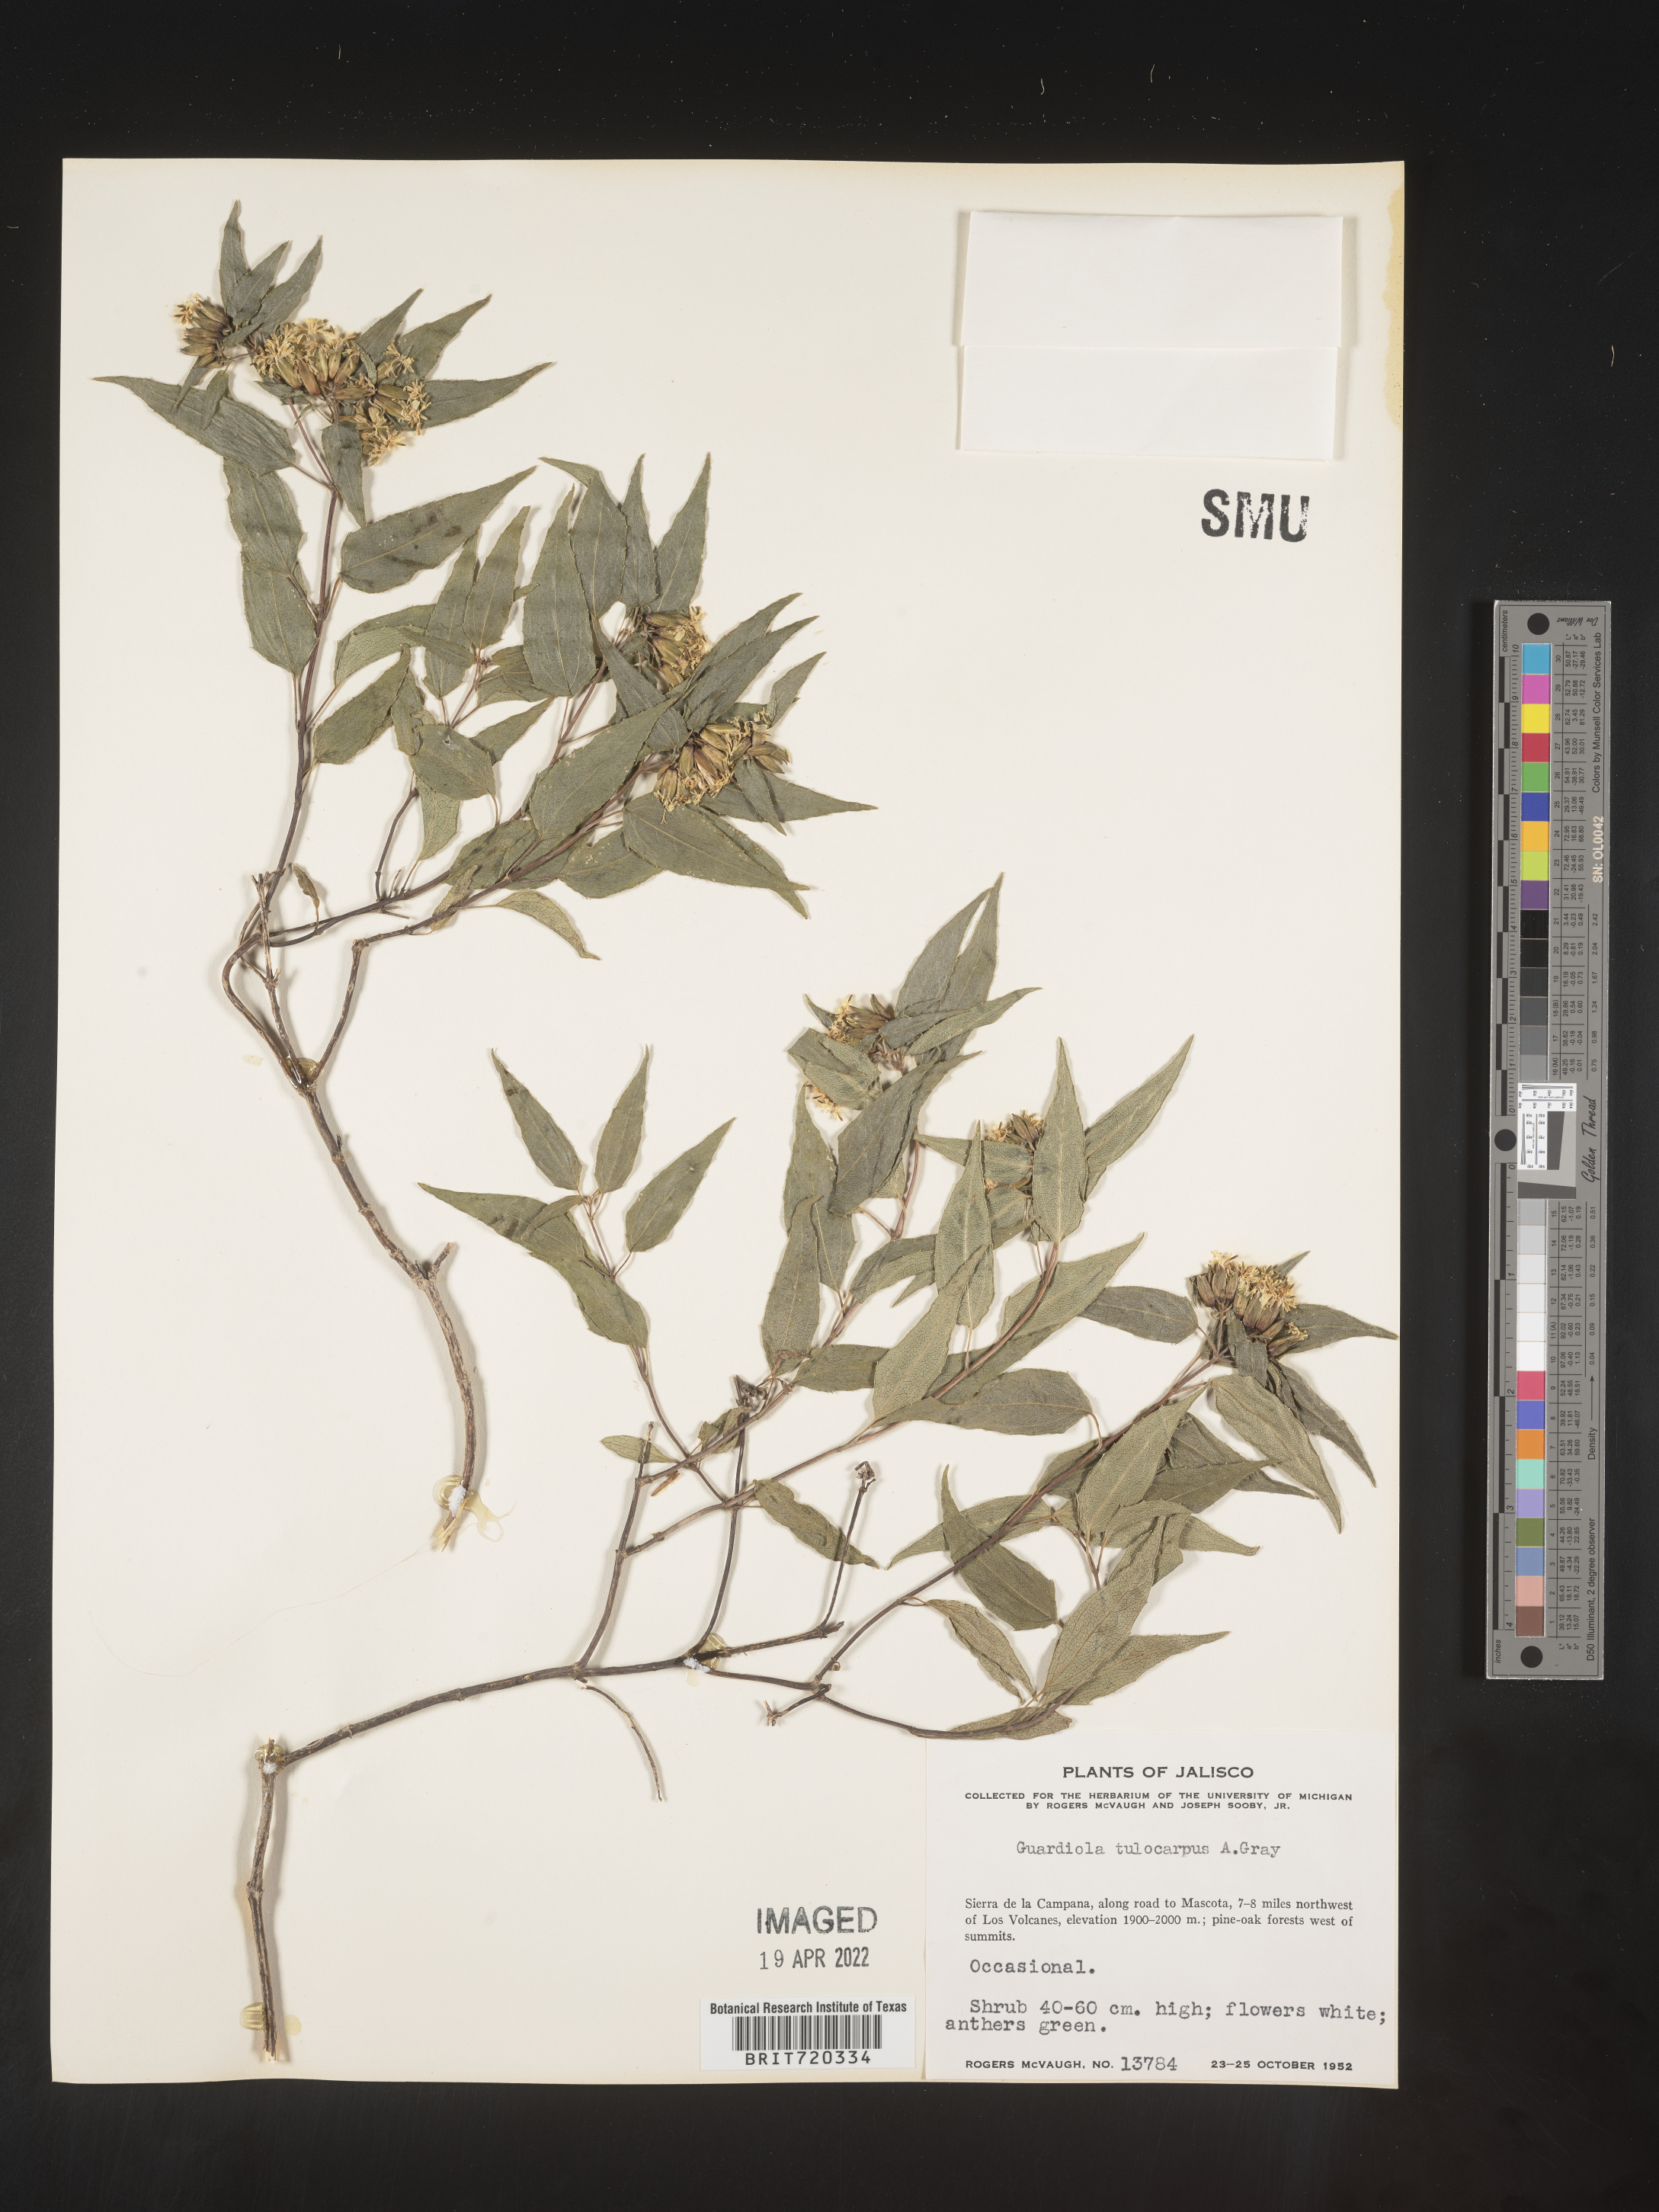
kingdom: Plantae
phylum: Tracheophyta
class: Magnoliopsida
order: Asterales
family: Asteraceae
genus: Guardiola
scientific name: Guardiola
